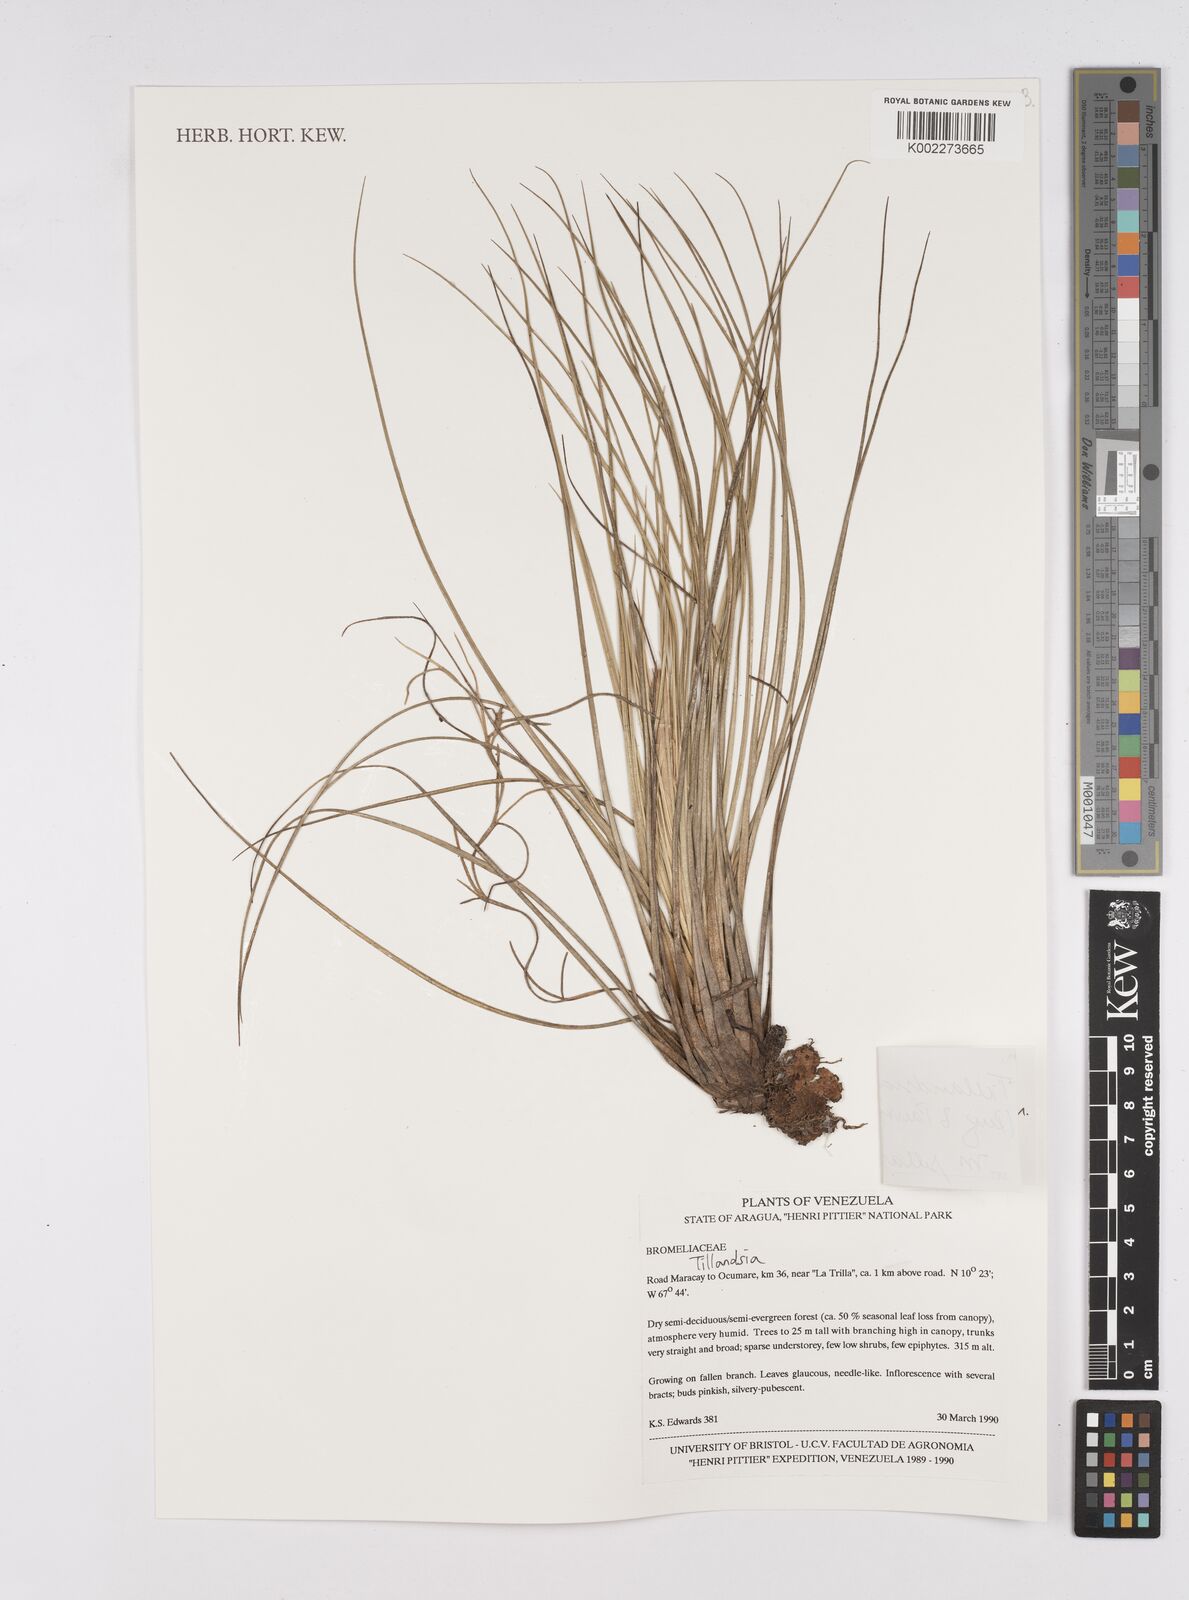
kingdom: Plantae
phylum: Tracheophyta
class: Liliopsida
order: Poales
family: Bromeliaceae
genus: Tillandsia
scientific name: Tillandsia juncea
